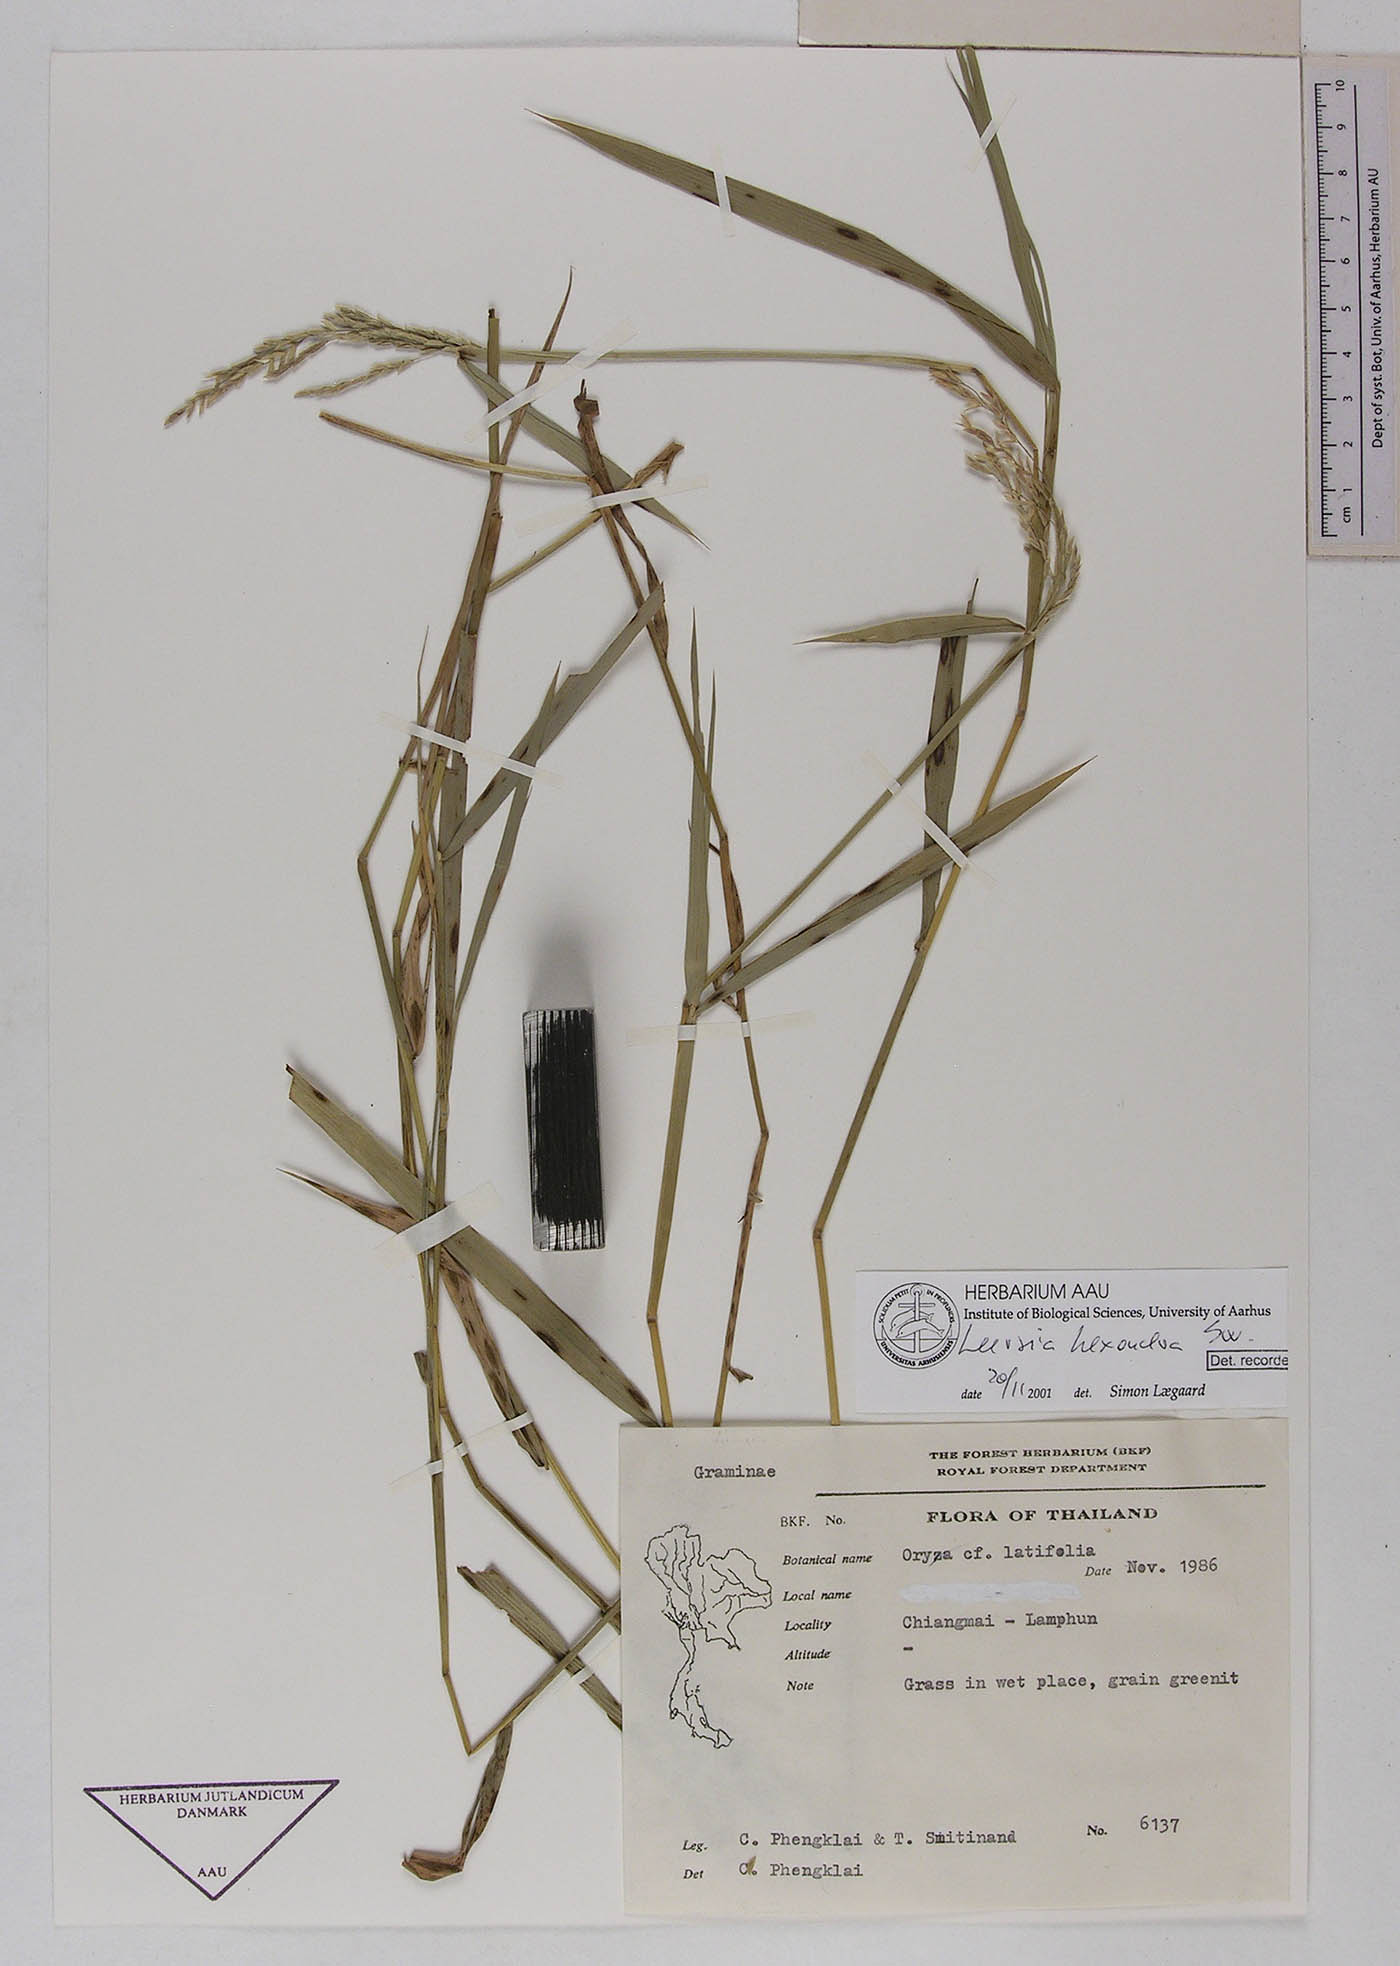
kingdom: Plantae
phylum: Tracheophyta
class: Liliopsida
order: Poales
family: Poaceae
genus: Leersia
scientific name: Leersia hexandra
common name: Southern cut grass
